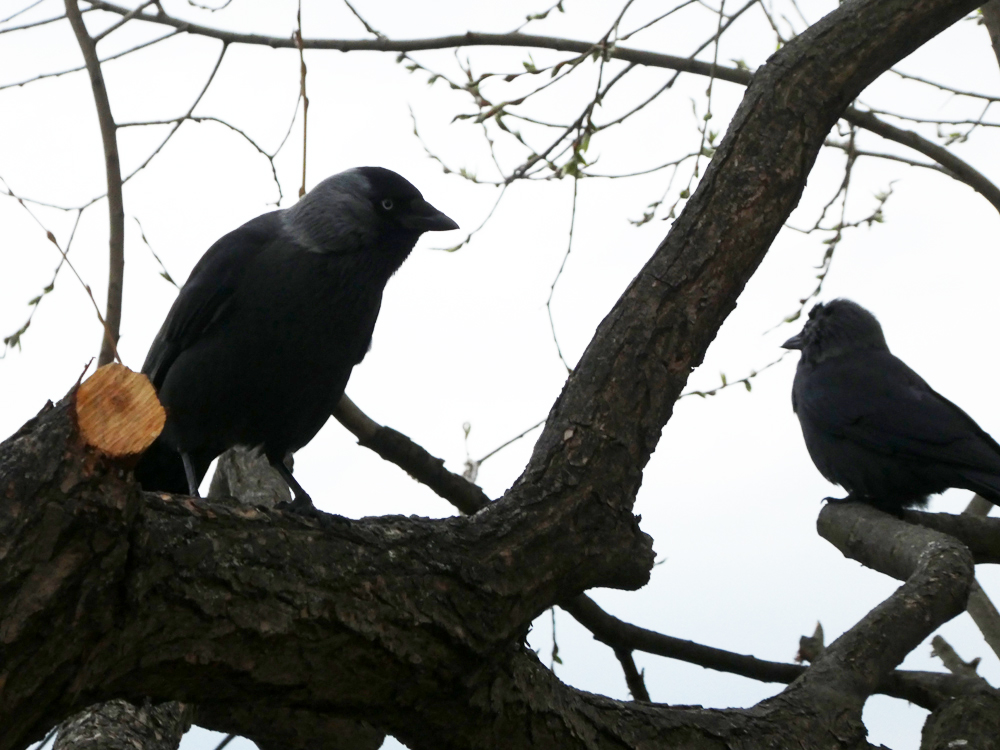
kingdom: Animalia
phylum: Chordata
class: Aves
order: Passeriformes
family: Corvidae
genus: Coloeus
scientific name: Coloeus monedula
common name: Western jackdaw
